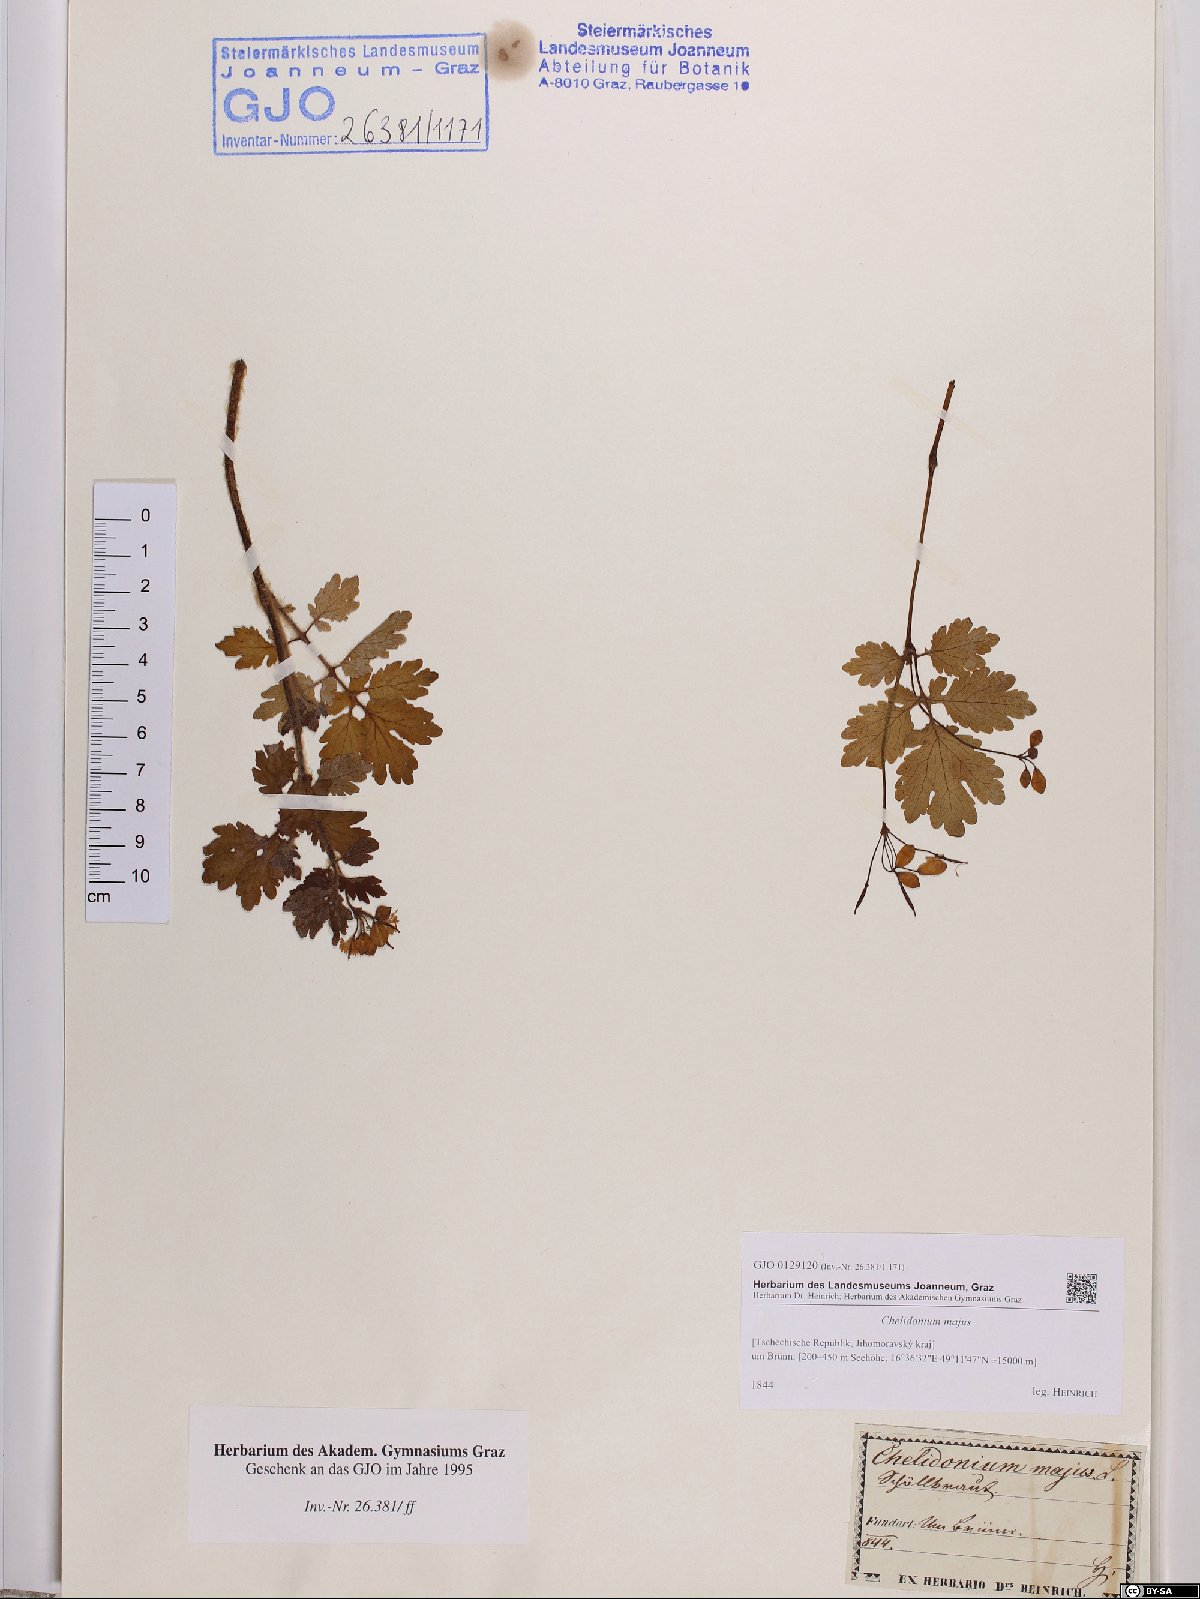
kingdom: Plantae
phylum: Tracheophyta
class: Magnoliopsida
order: Ranunculales
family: Papaveraceae
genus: Chelidonium
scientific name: Chelidonium majus
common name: Greater celandine
